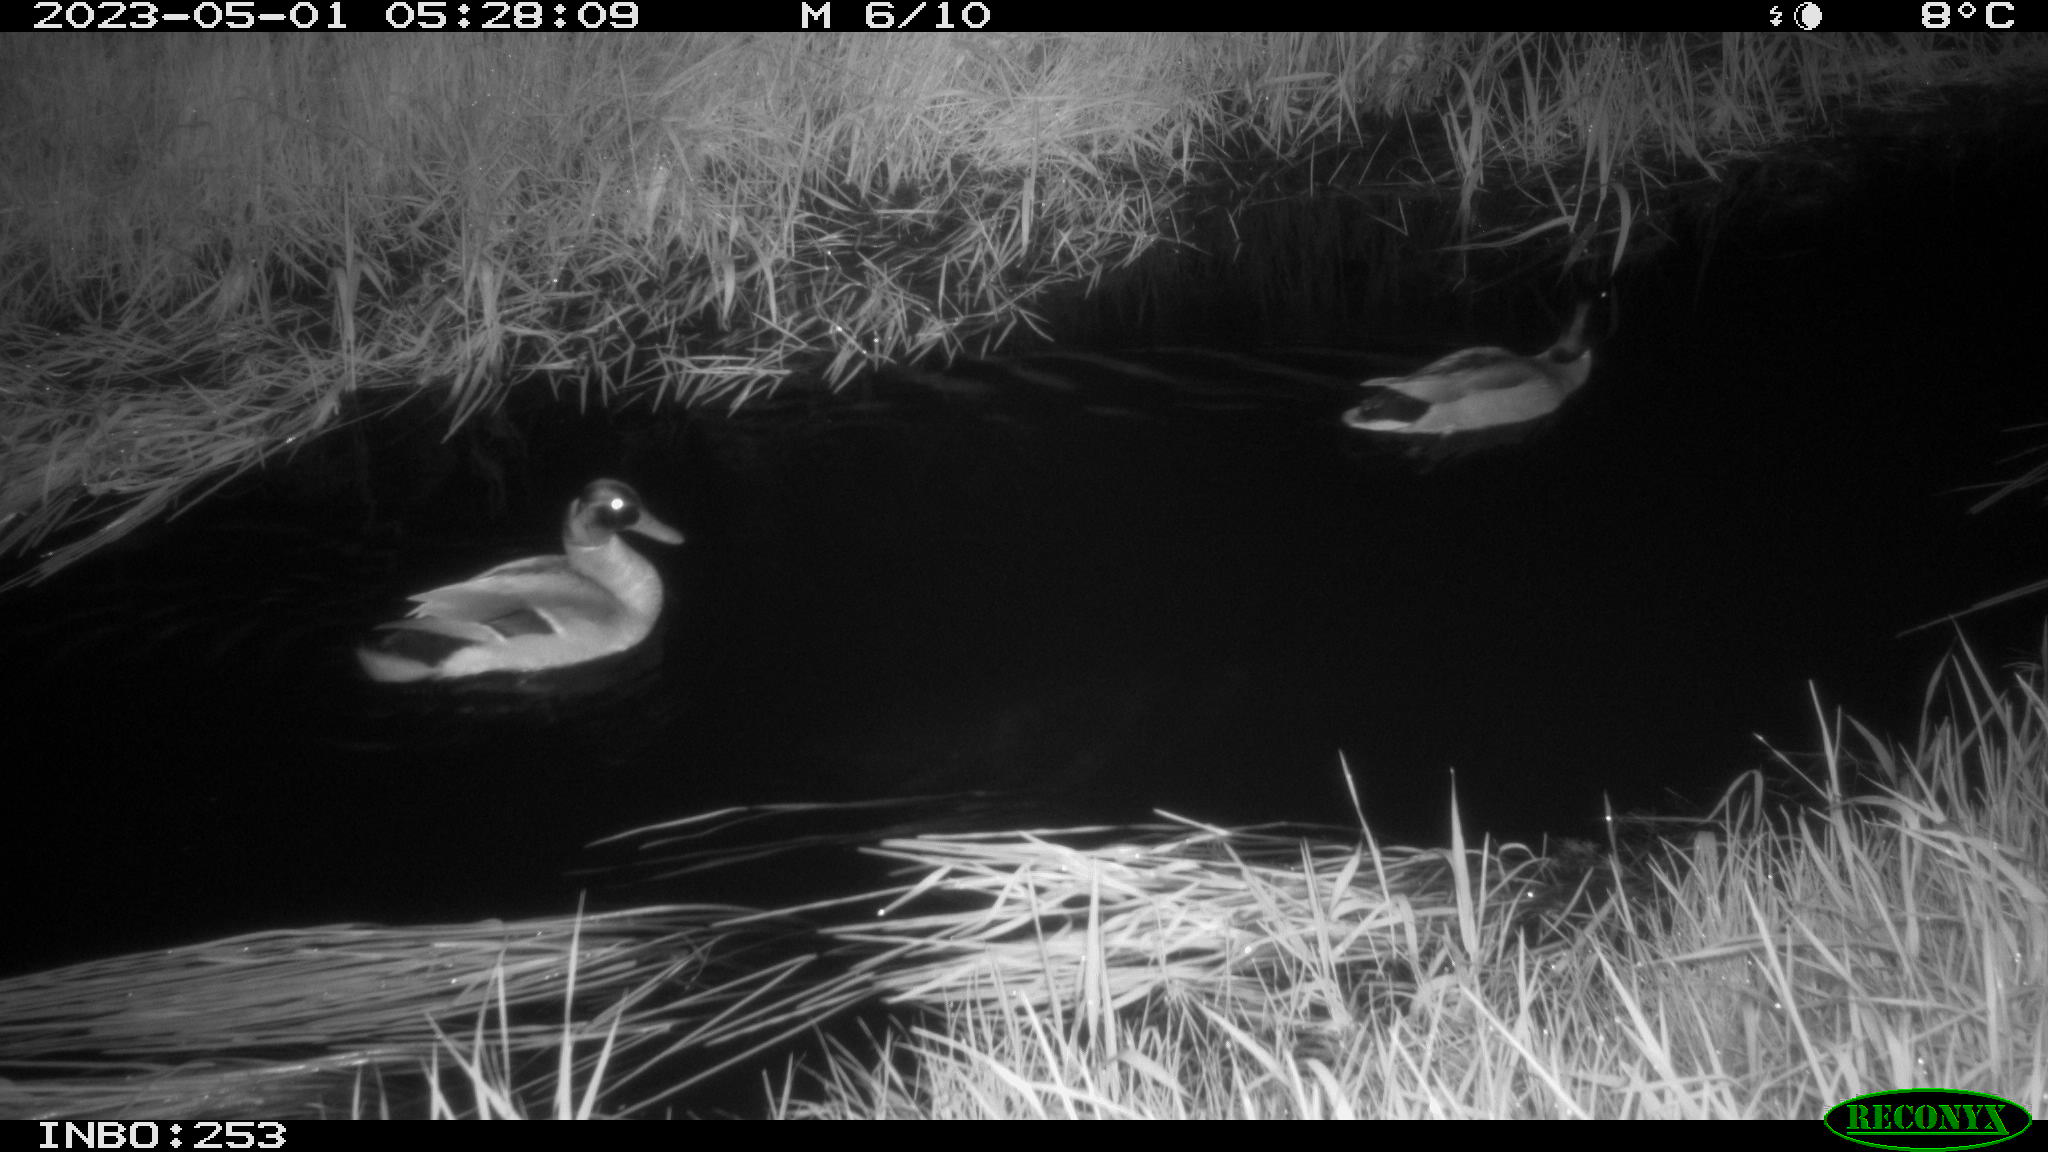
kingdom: Animalia
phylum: Chordata
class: Aves
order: Anseriformes
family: Anatidae
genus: Anas
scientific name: Anas
